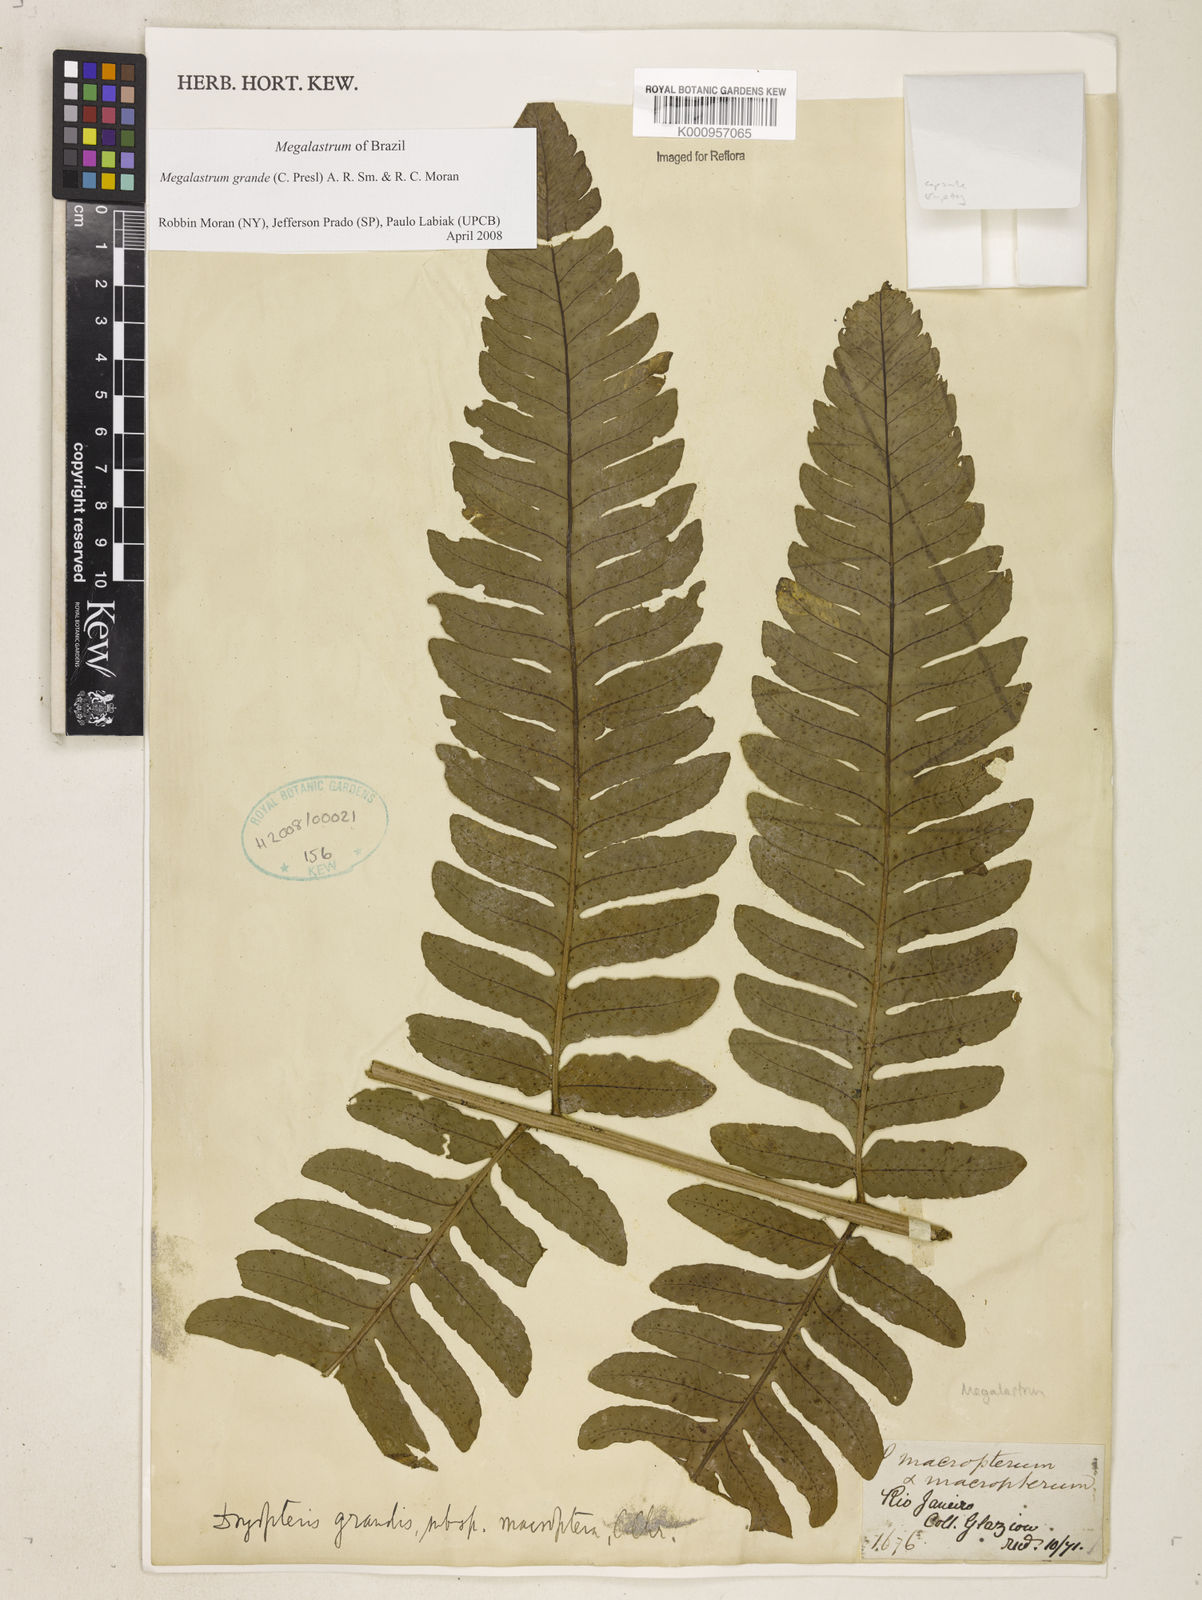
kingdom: Plantae
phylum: Tracheophyta
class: Polypodiopsida
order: Polypodiales
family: Dryopteridaceae
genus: Megalastrum
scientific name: Megalastrum grande
